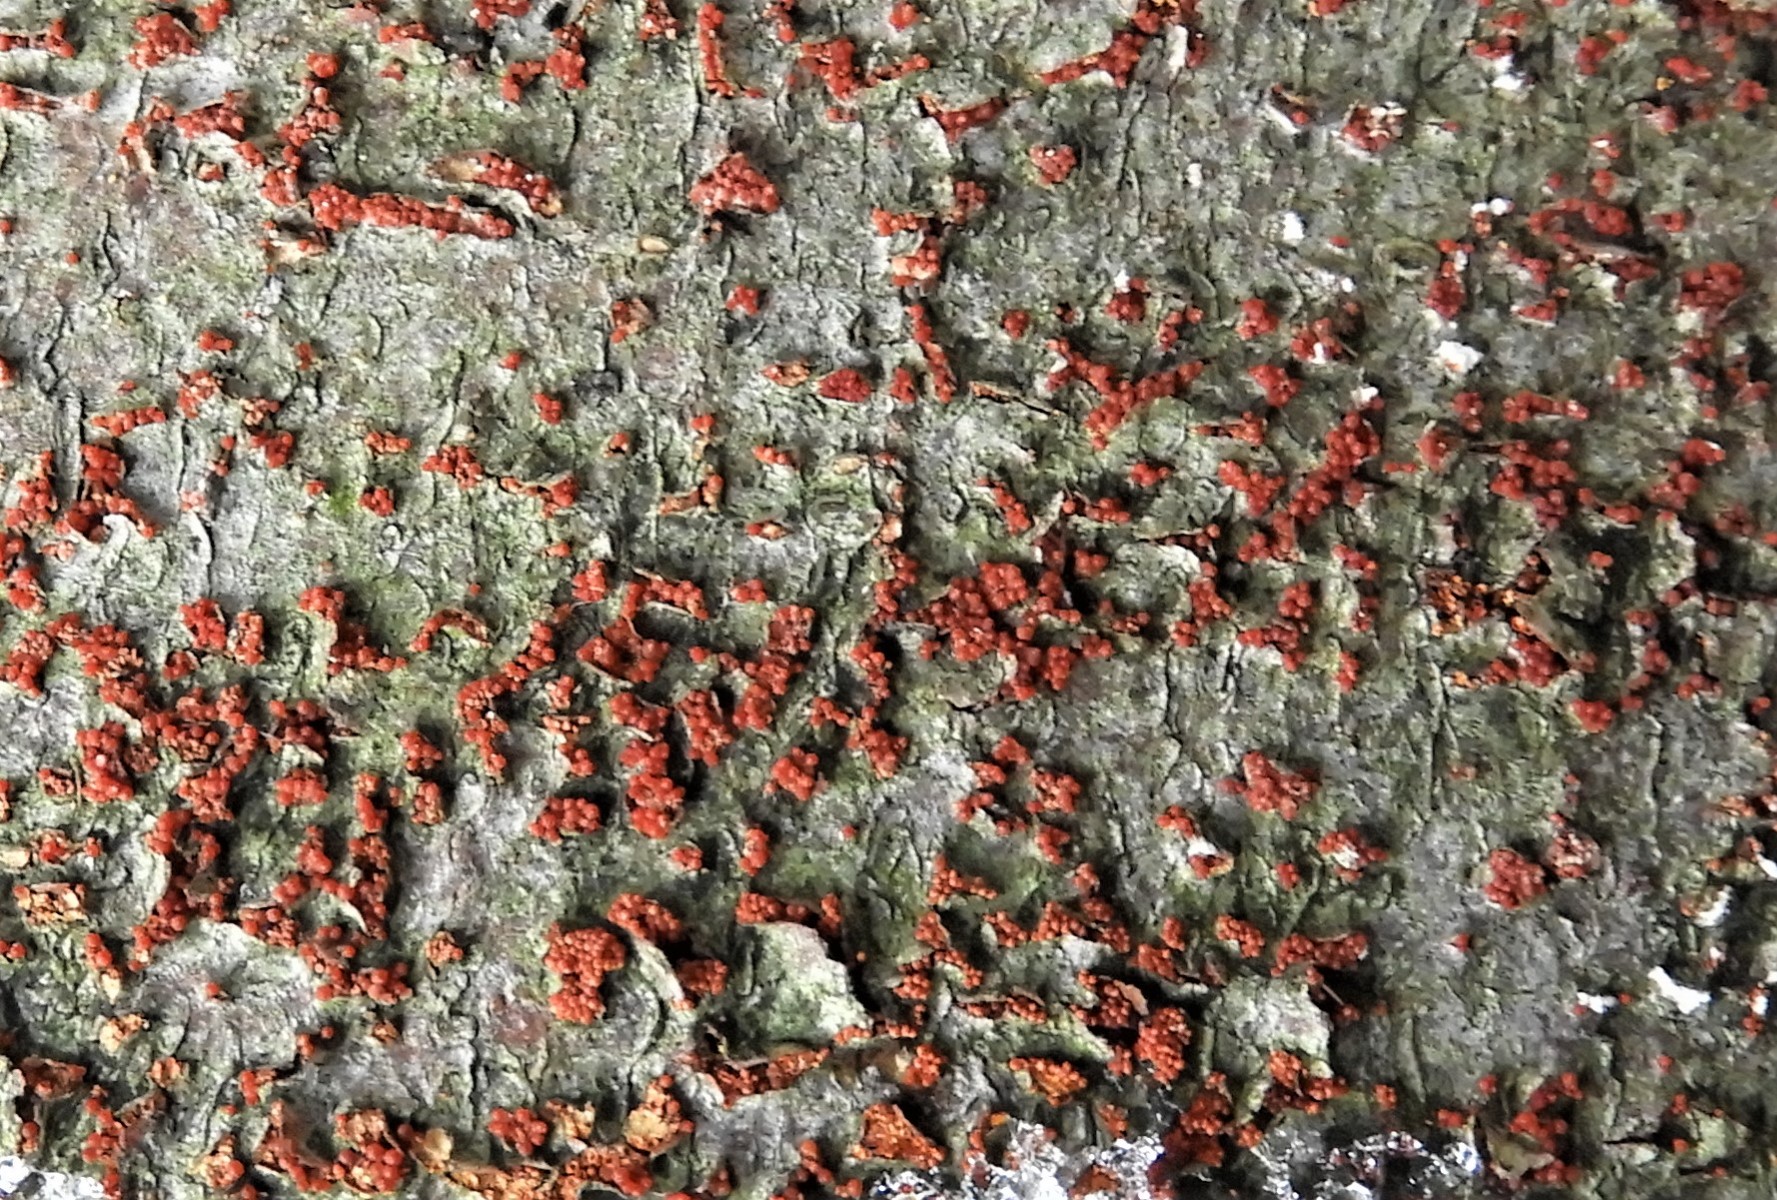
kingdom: Fungi
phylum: Ascomycota
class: Sordariomycetes
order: Hypocreales
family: Nectriaceae
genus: Neonectria
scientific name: Neonectria coccinea
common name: bøgebark-cinnobersvamp
